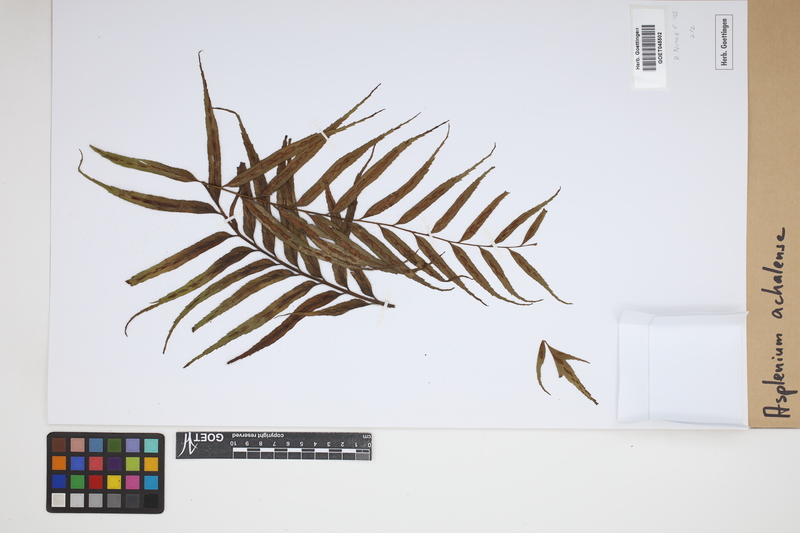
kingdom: Plantae
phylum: Tracheophyta
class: Polypodiopsida
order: Polypodiales
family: Aspleniaceae
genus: Asplenium
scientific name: Asplenium achalense
